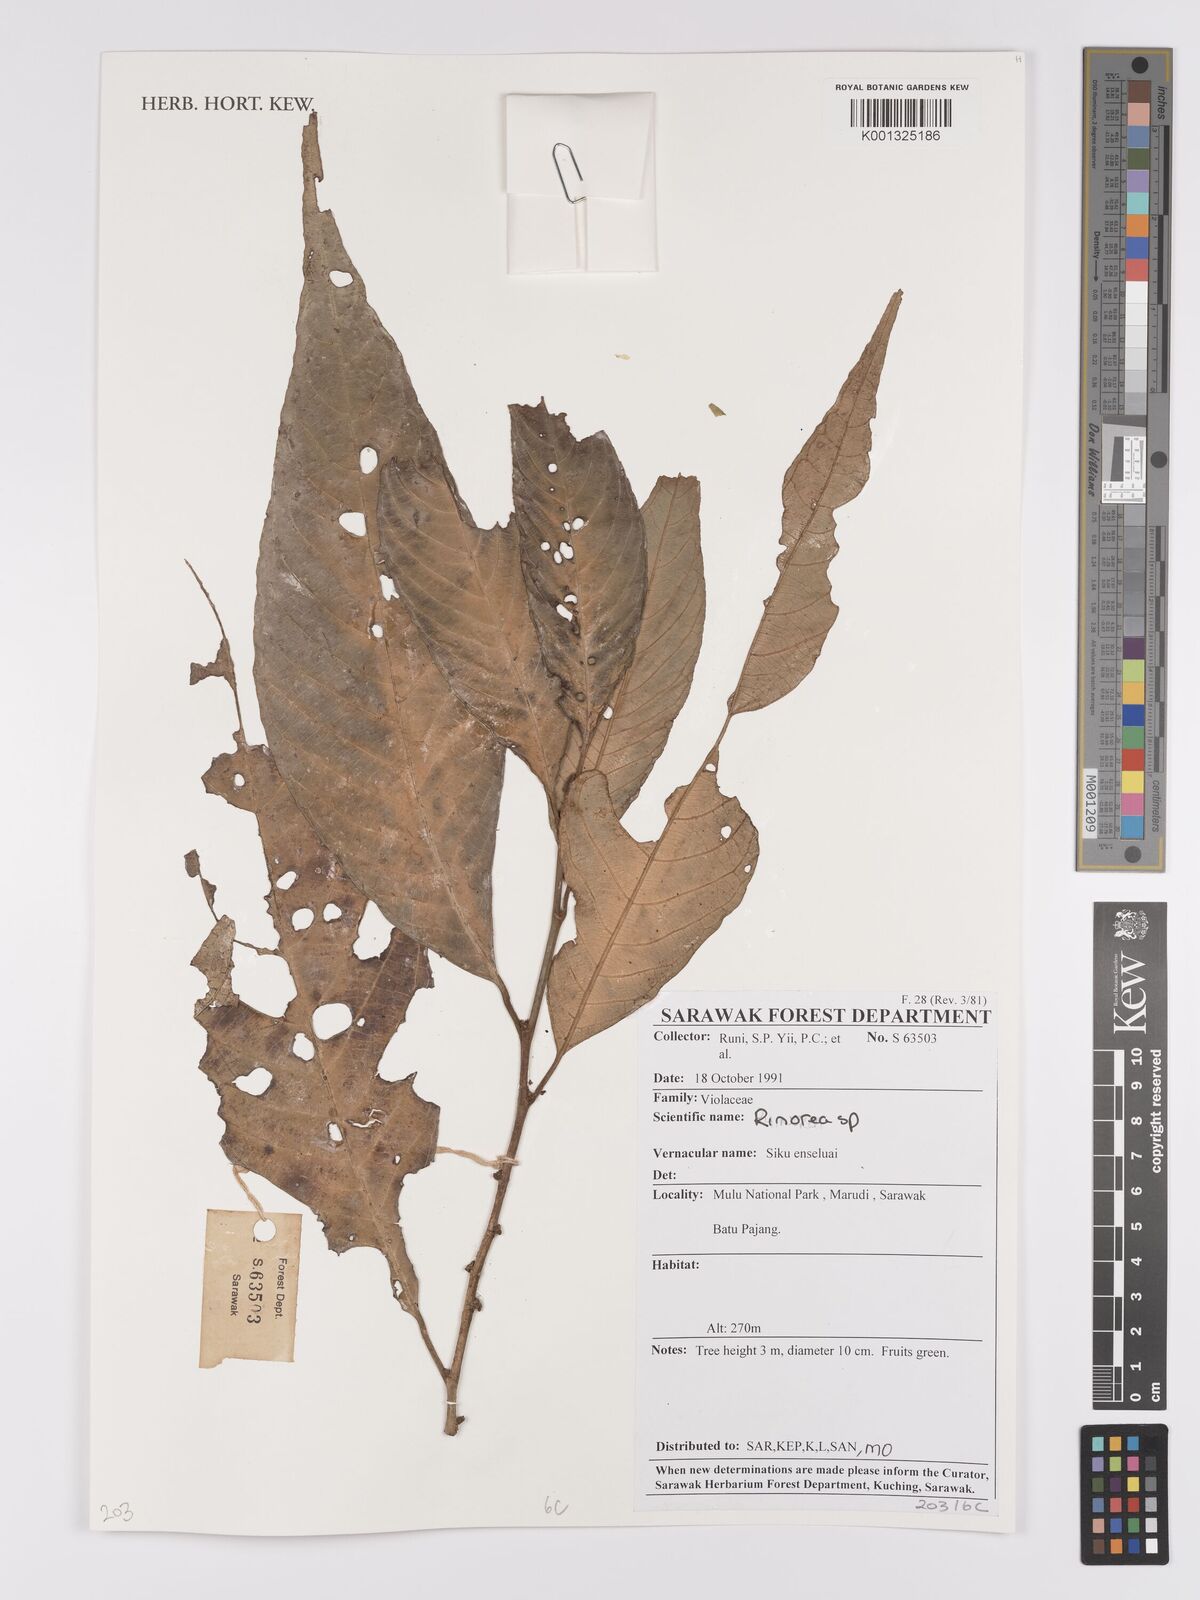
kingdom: Plantae
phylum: Tracheophyta
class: Magnoliopsida
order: Malpighiales
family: Violaceae
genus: Rinorea
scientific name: Rinorea
